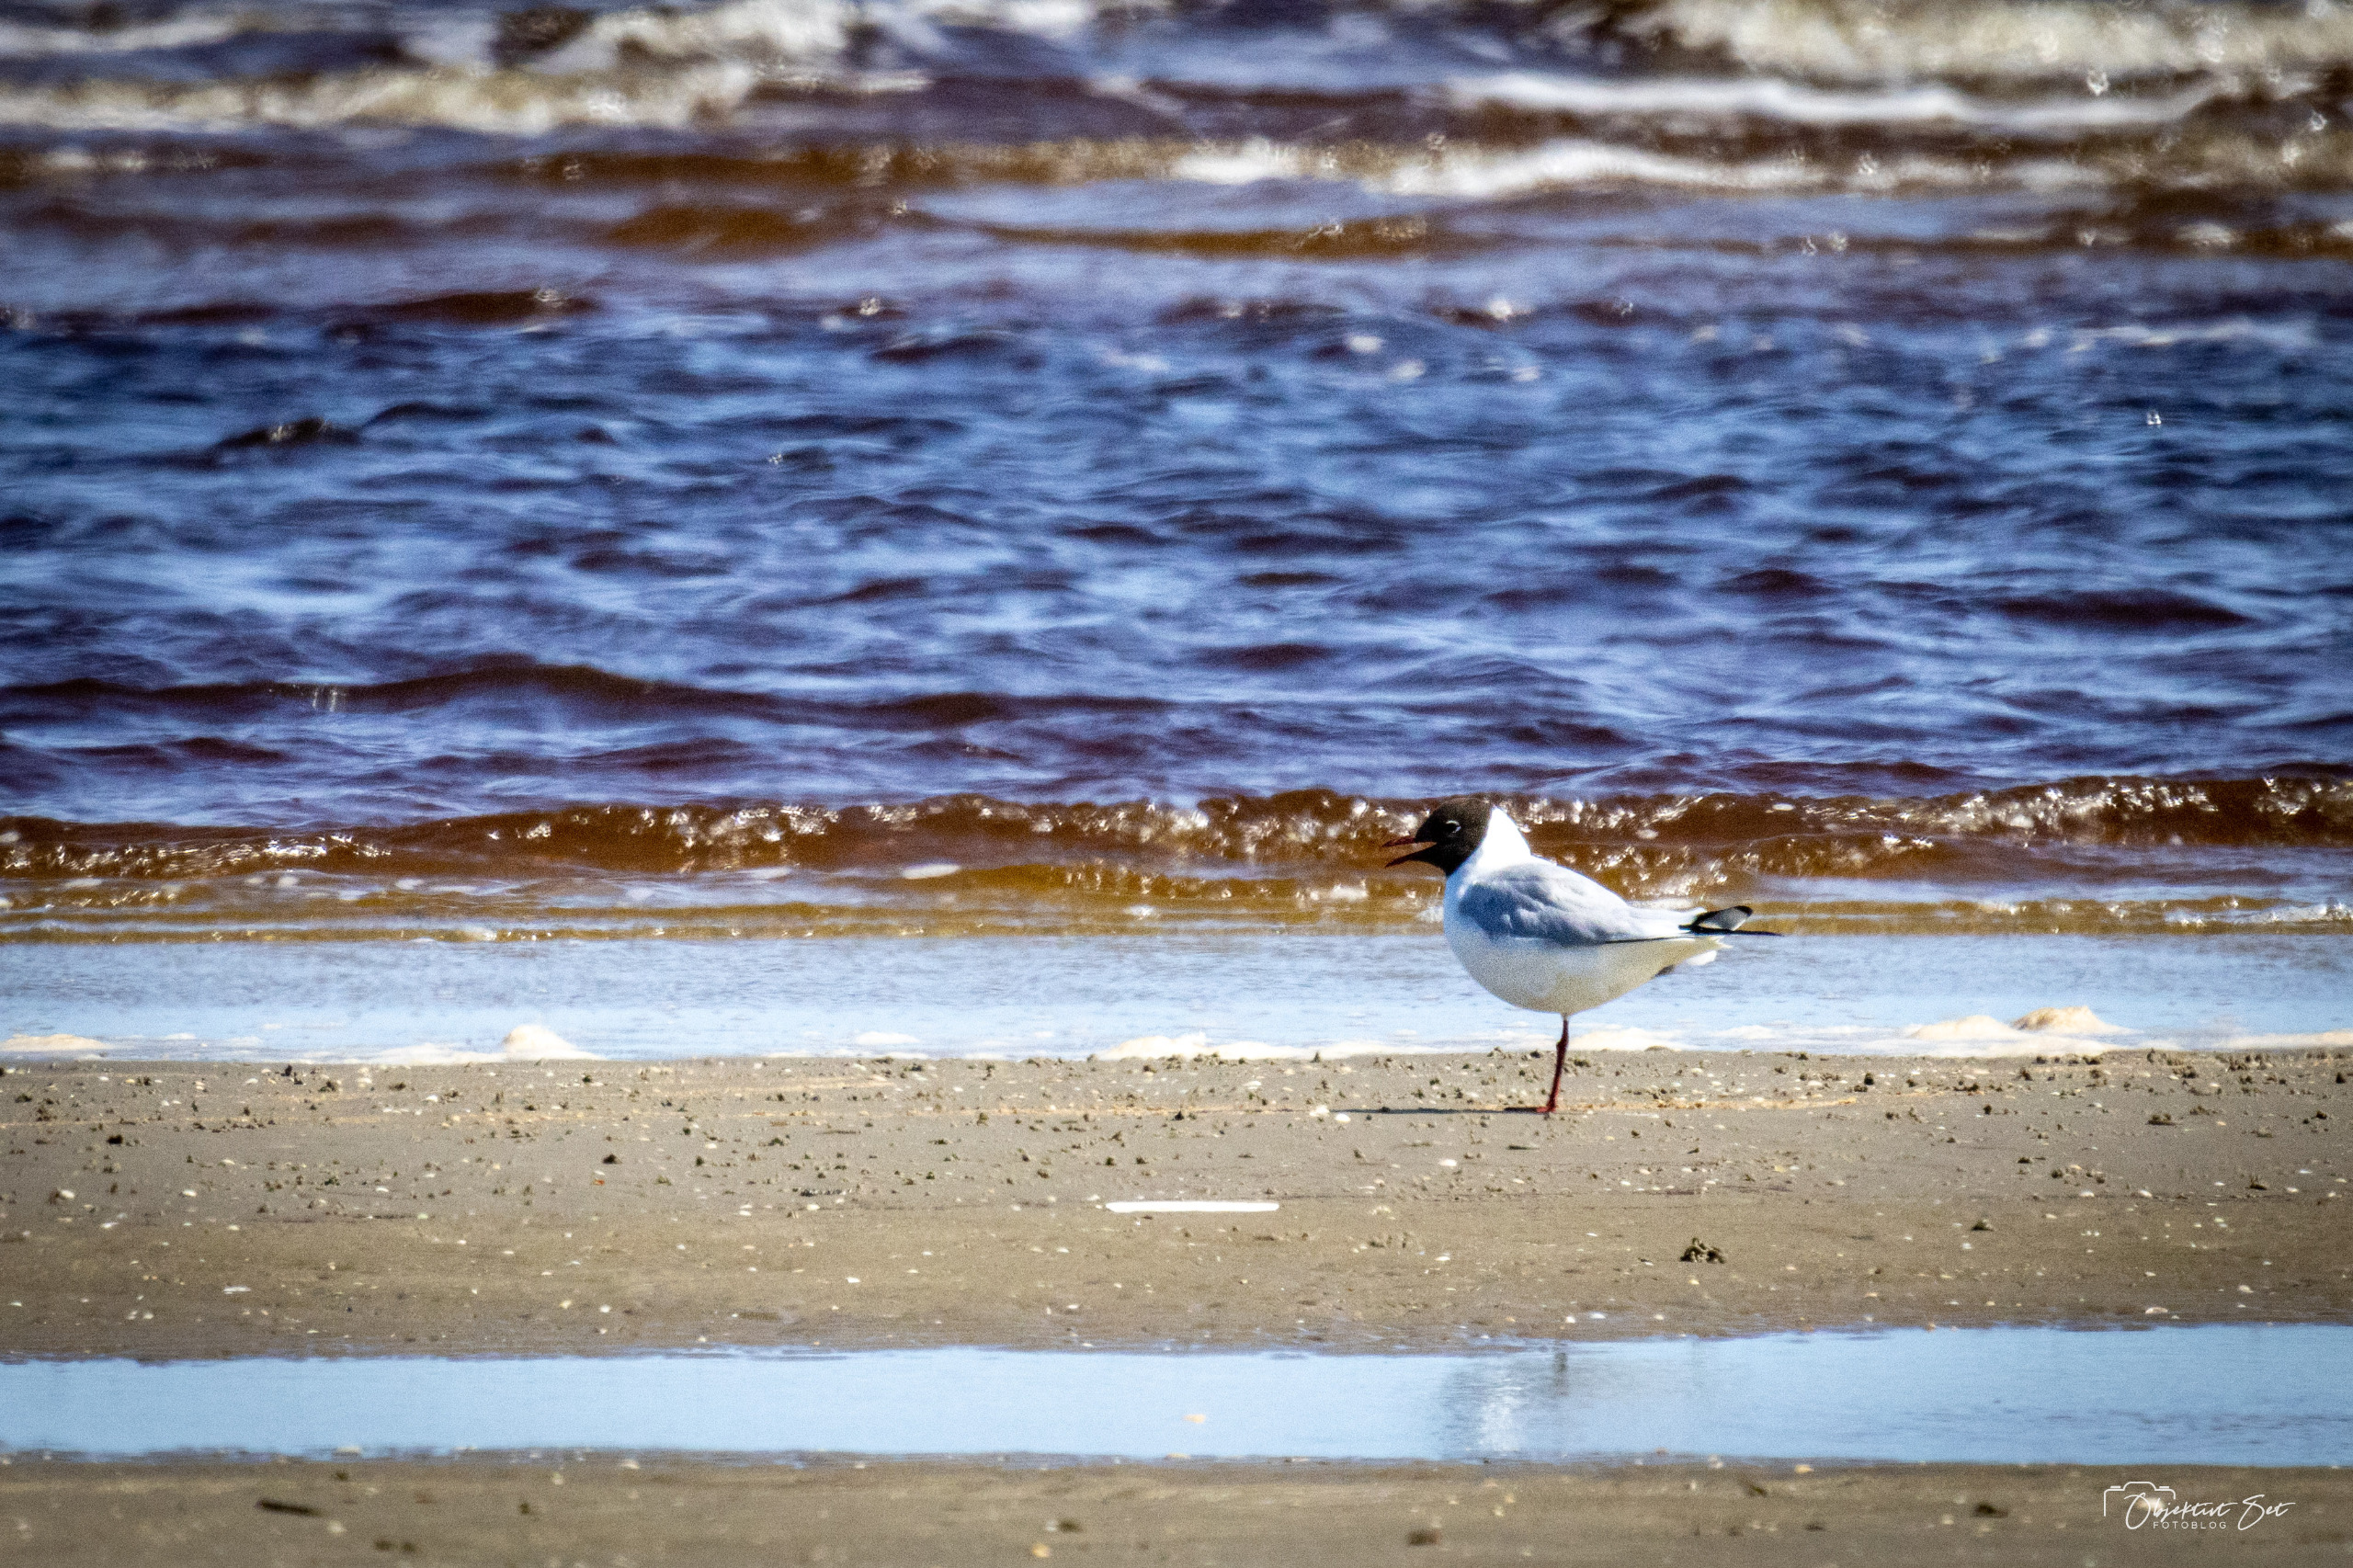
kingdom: Animalia
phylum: Chordata
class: Aves
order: Charadriiformes
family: Laridae
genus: Chroicocephalus
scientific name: Chroicocephalus ridibundus
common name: Hættemåge
